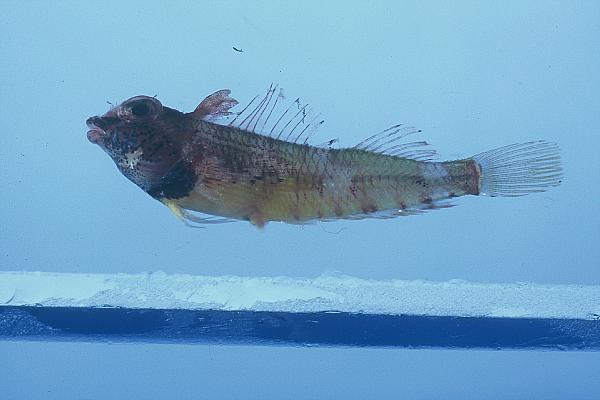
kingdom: Animalia
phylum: Chordata
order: Perciformes
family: Tripterygiidae
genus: Enneapterygius
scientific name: Enneapterygius abeli
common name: Yellow triplefin
